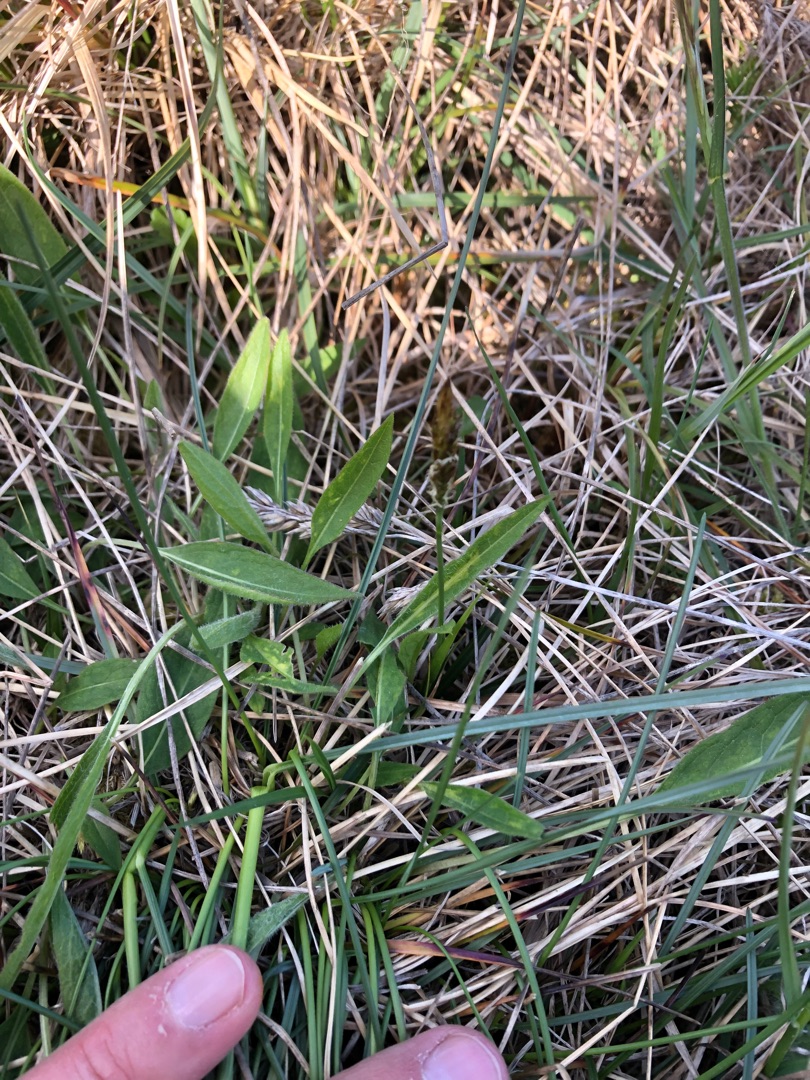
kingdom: Plantae
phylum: Tracheophyta
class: Liliopsida
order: Poales
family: Cyperaceae
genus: Carex
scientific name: Carex caryophyllea
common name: Vår-star
